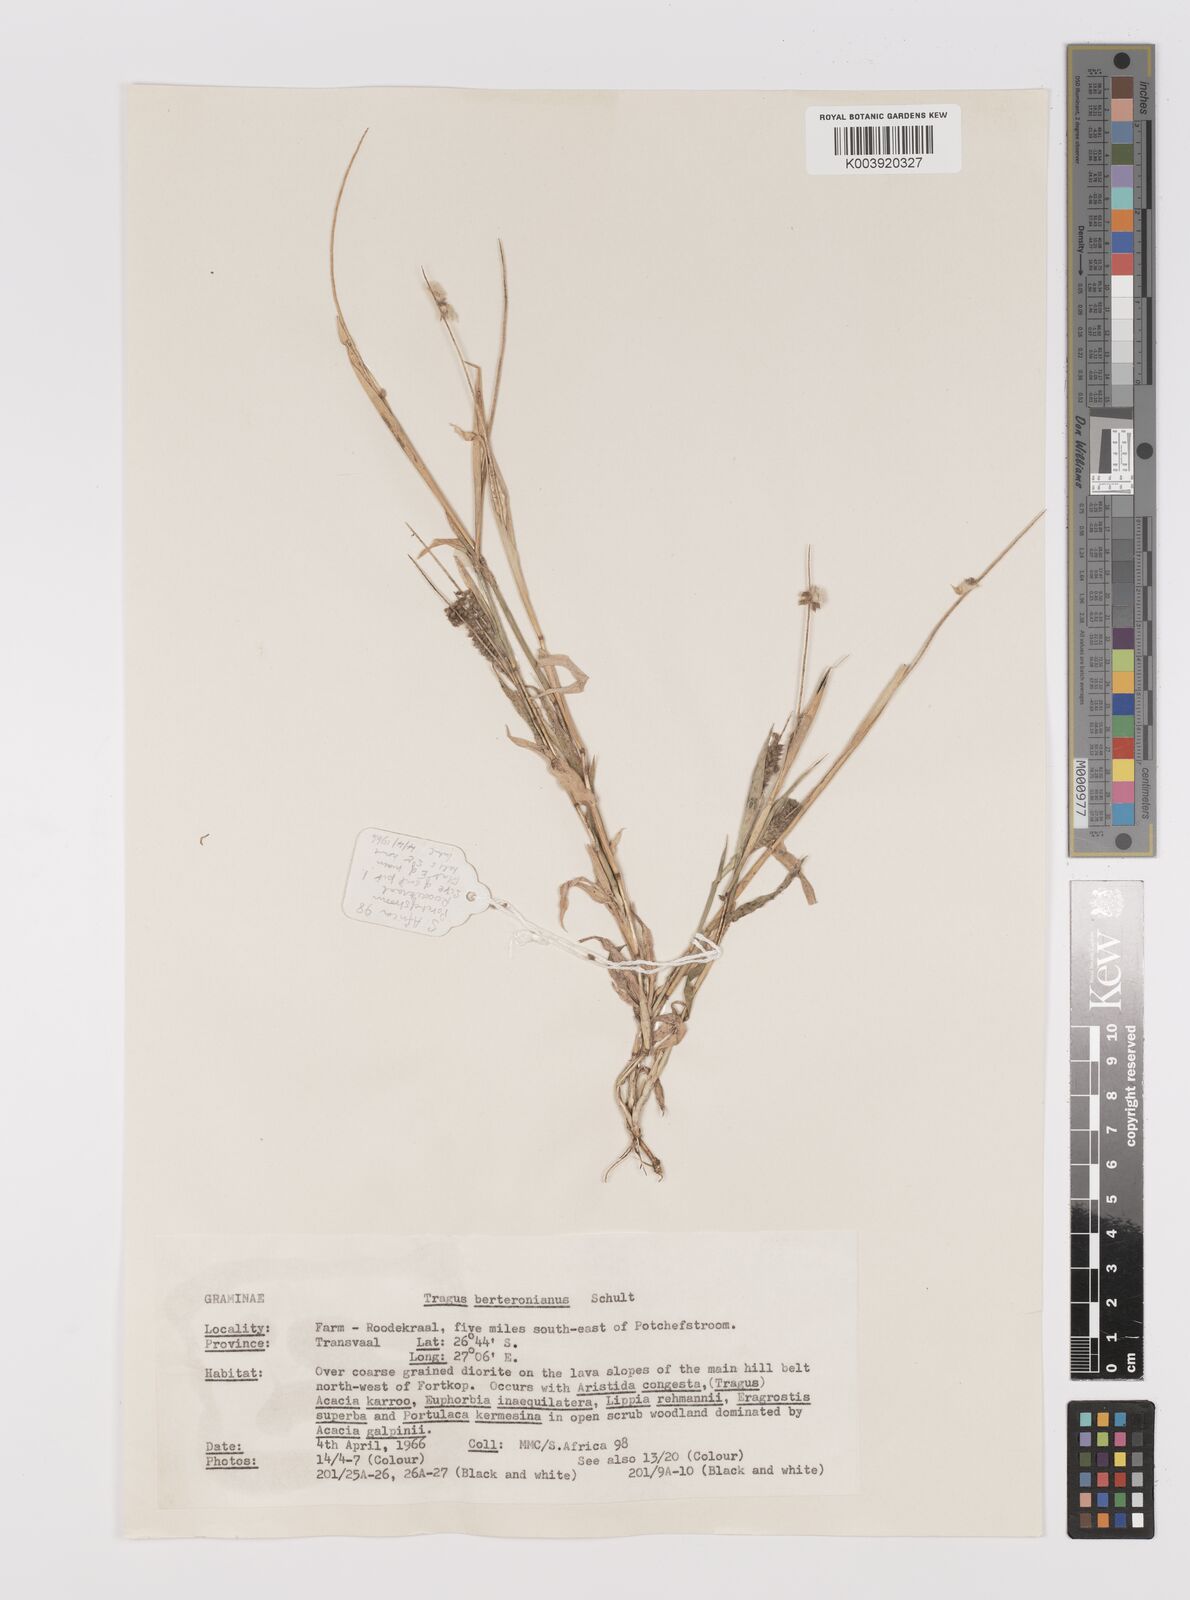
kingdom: Plantae
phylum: Tracheophyta
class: Liliopsida
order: Poales
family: Poaceae
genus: Tragus
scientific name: Tragus berteronianus
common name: African bur-grass
